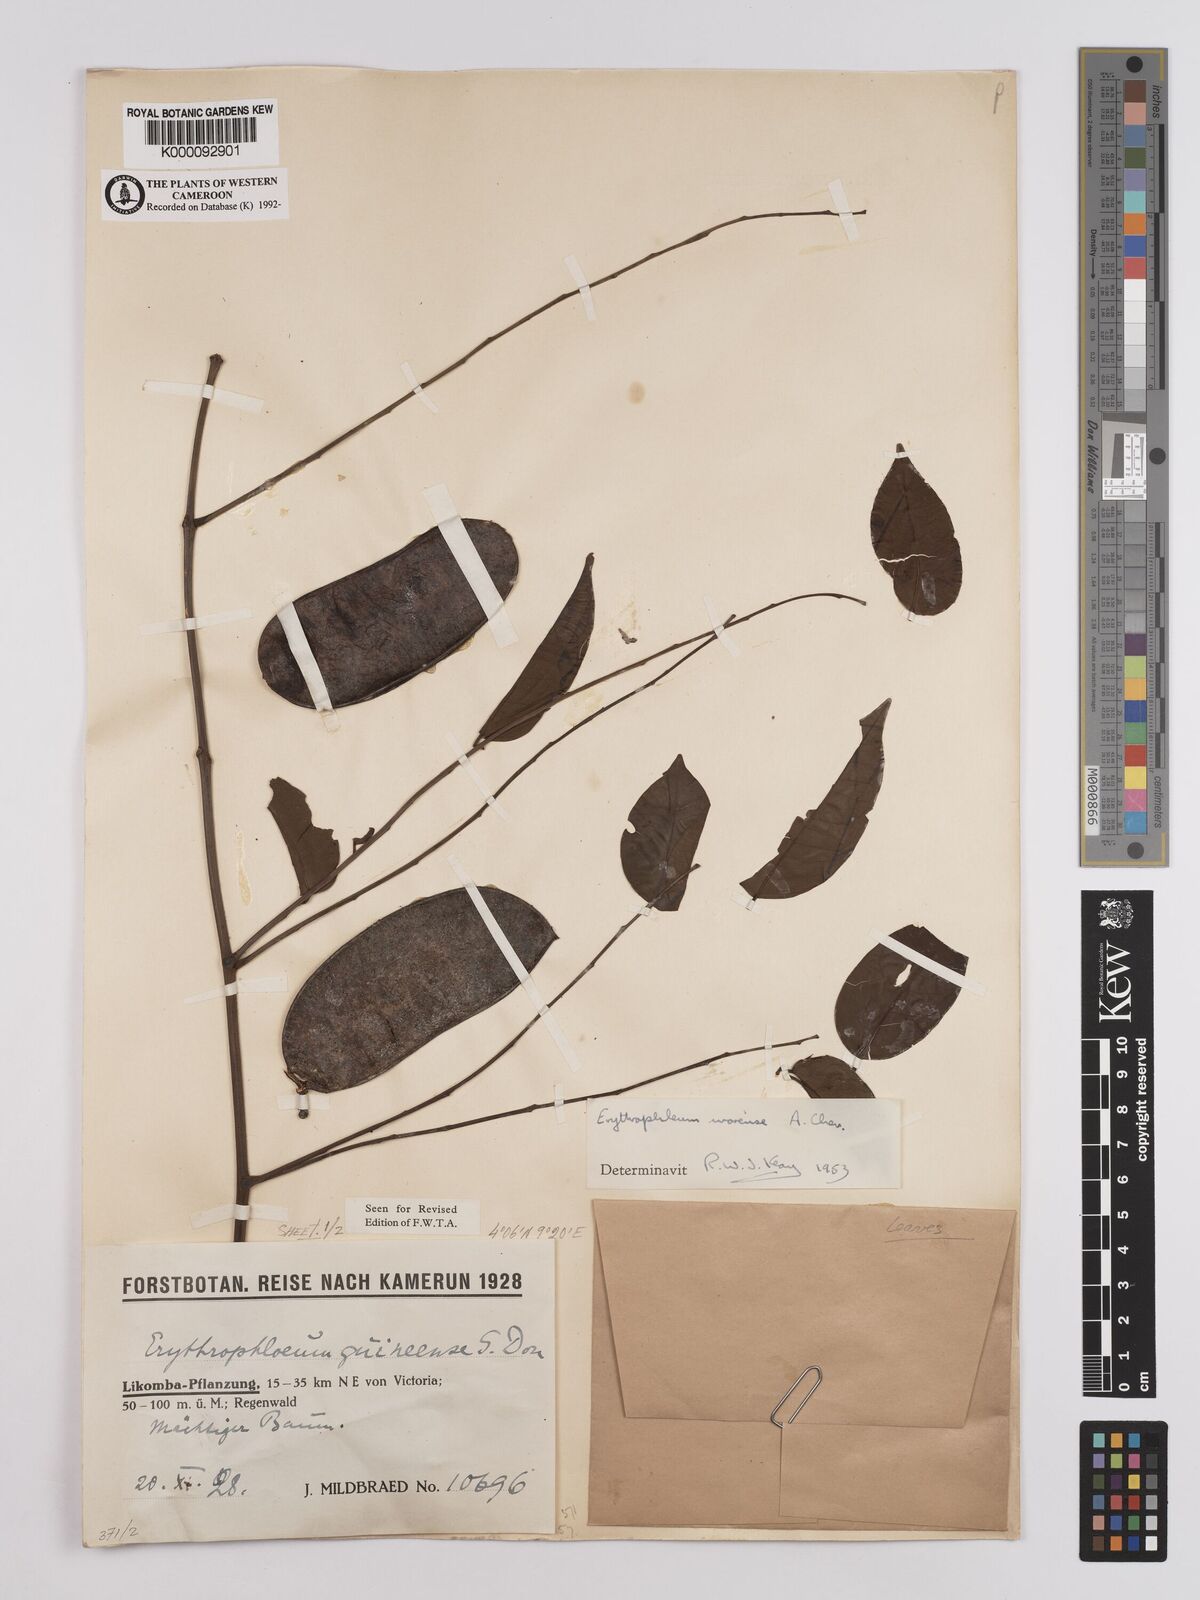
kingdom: Plantae
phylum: Tracheophyta
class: Magnoliopsida
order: Fabales
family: Fabaceae
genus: Erythrophleum
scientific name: Erythrophleum ivorense
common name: Ordealtree
